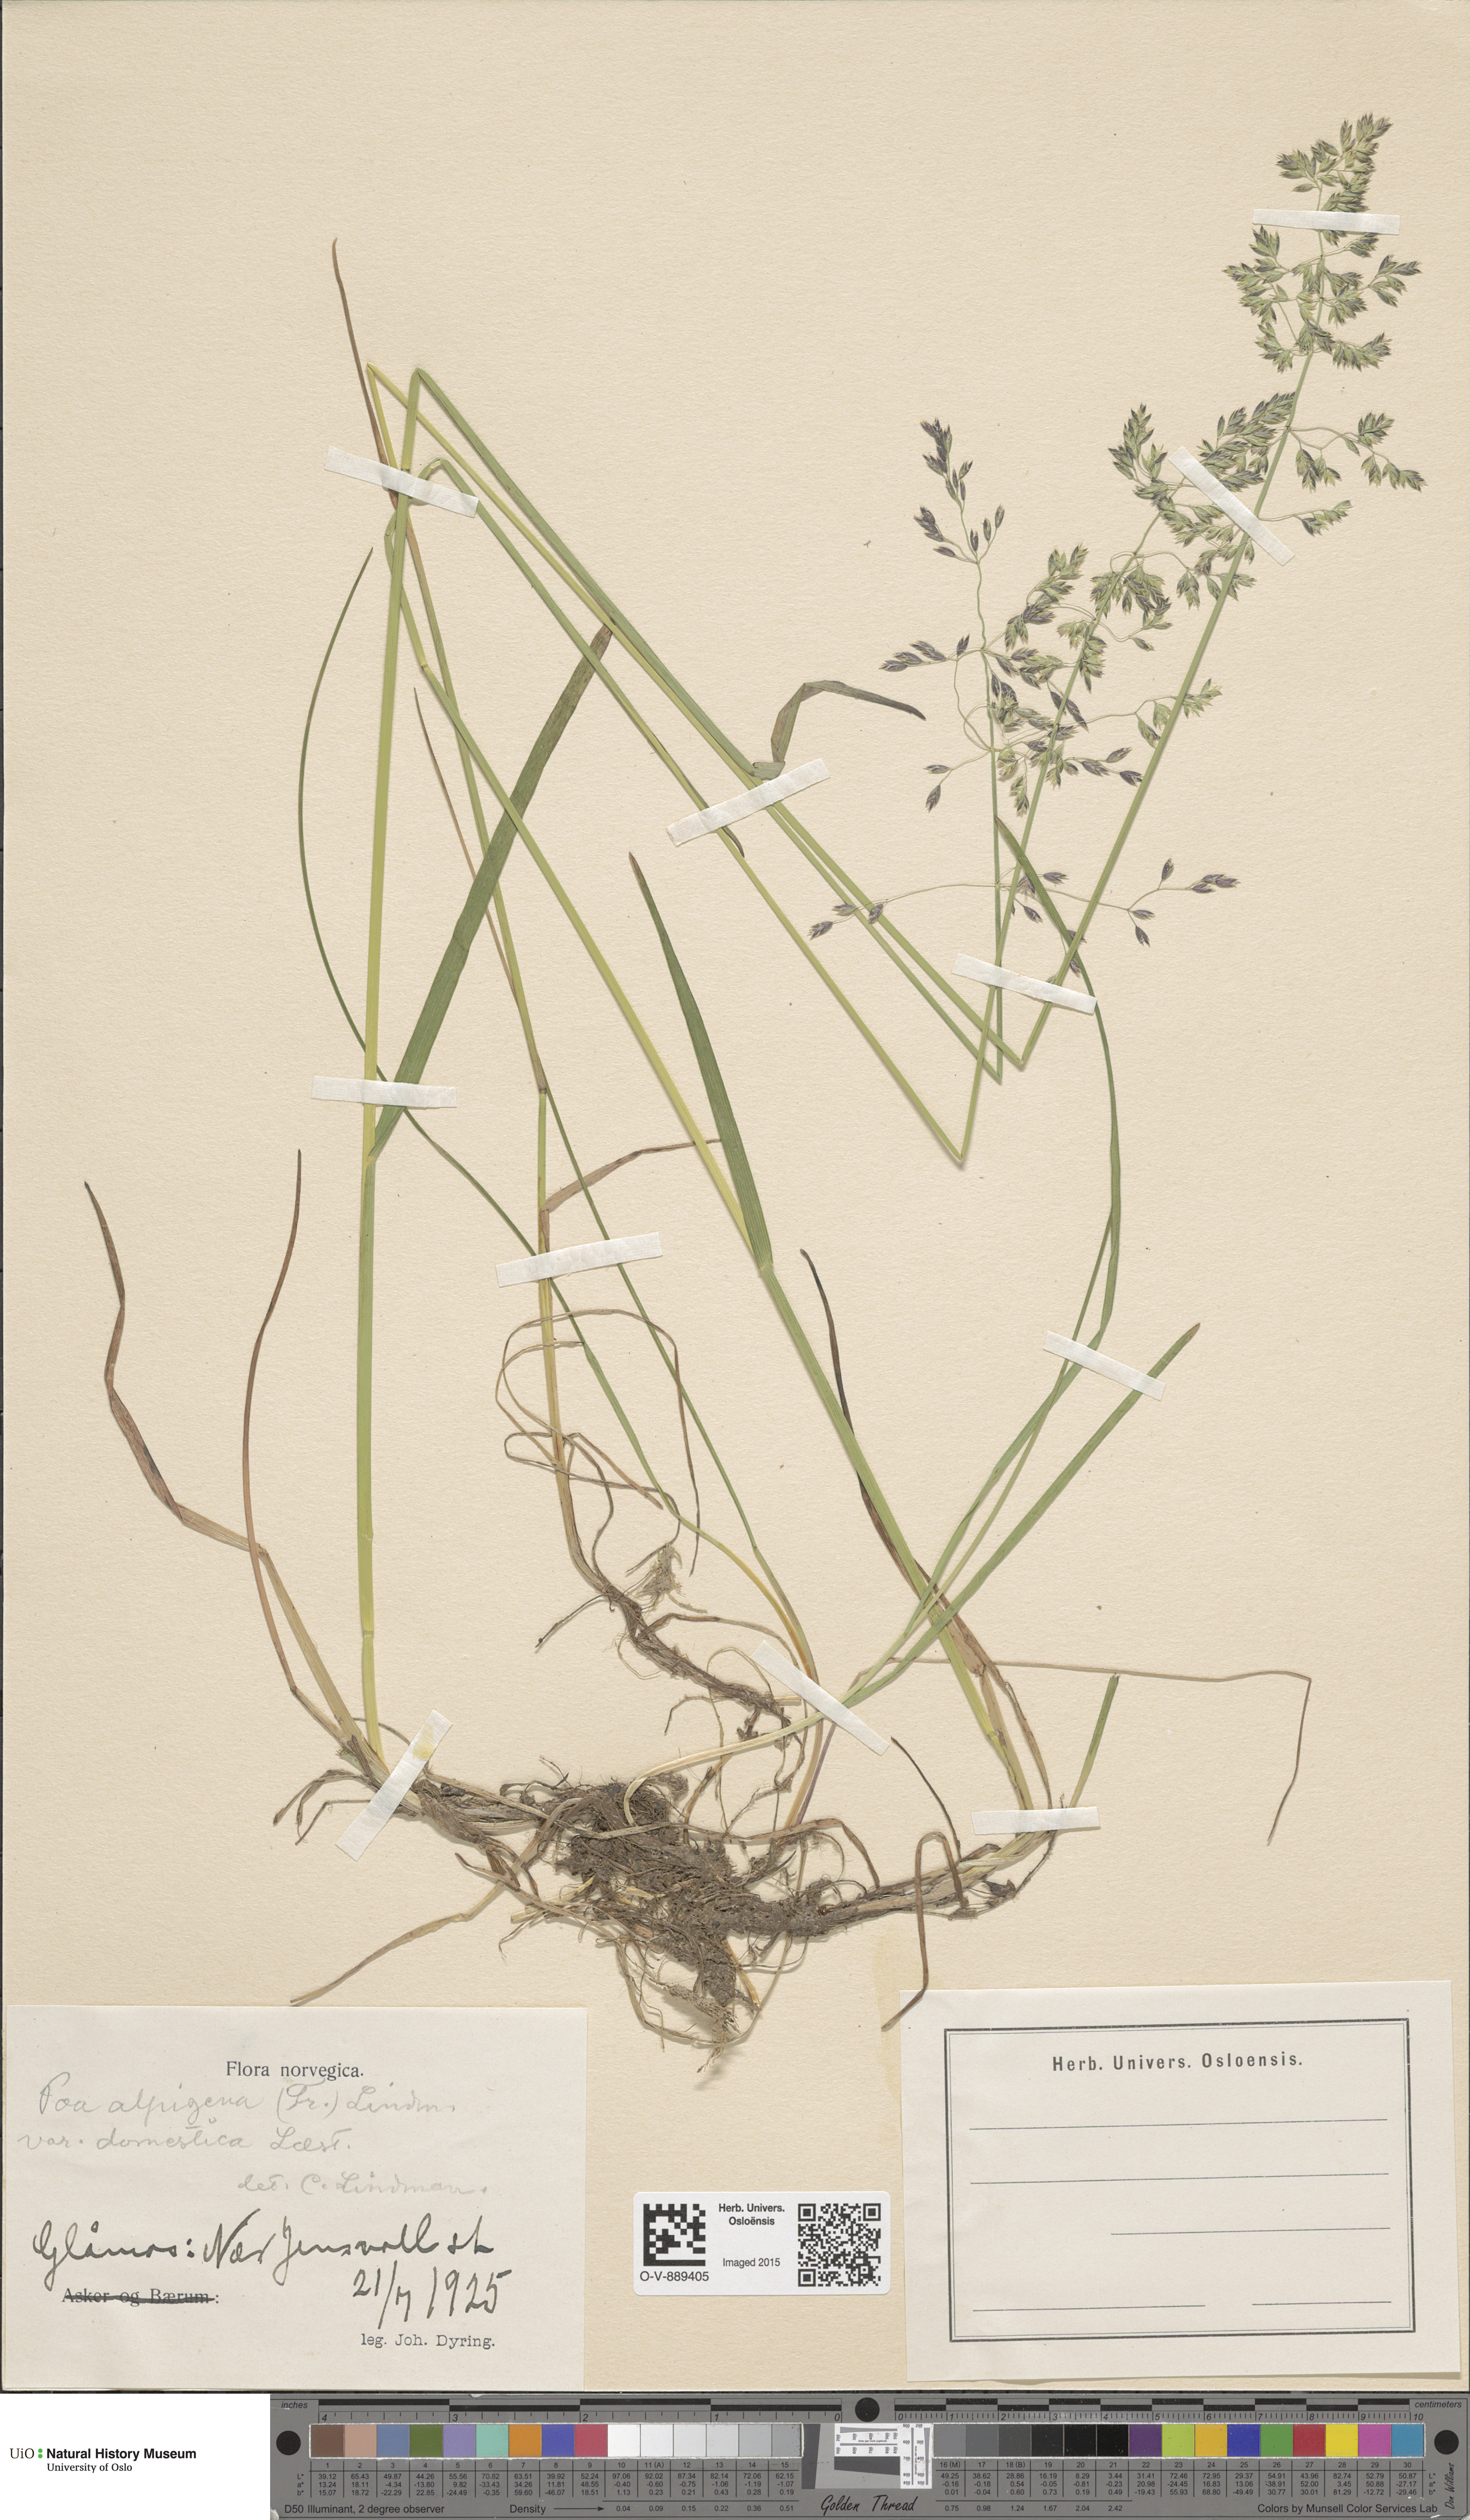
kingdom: Plantae
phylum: Tracheophyta
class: Liliopsida
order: Poales
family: Poaceae
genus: Poa
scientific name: Poa pratensis
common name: Kentucky bluegrass
